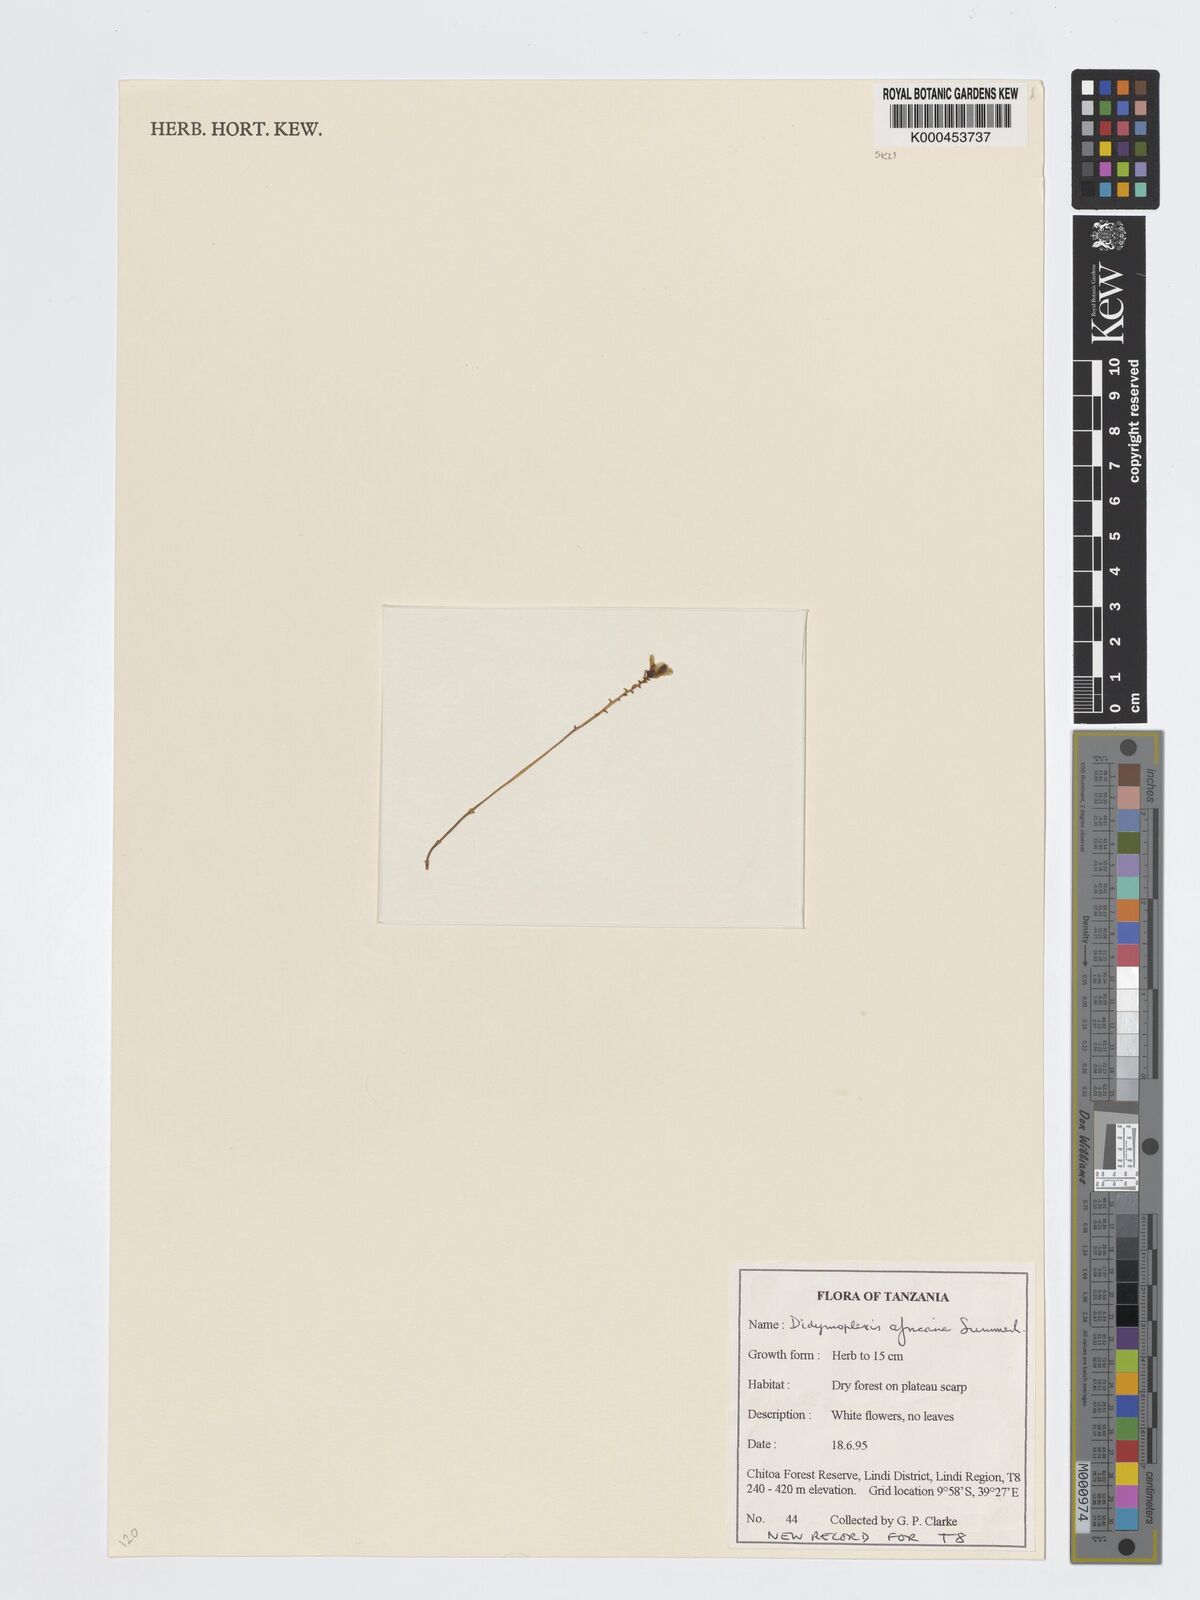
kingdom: Plantae
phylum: Tracheophyta
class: Liliopsida
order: Asparagales
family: Orchidaceae
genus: Didymoplexis
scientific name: Didymoplexis africana
